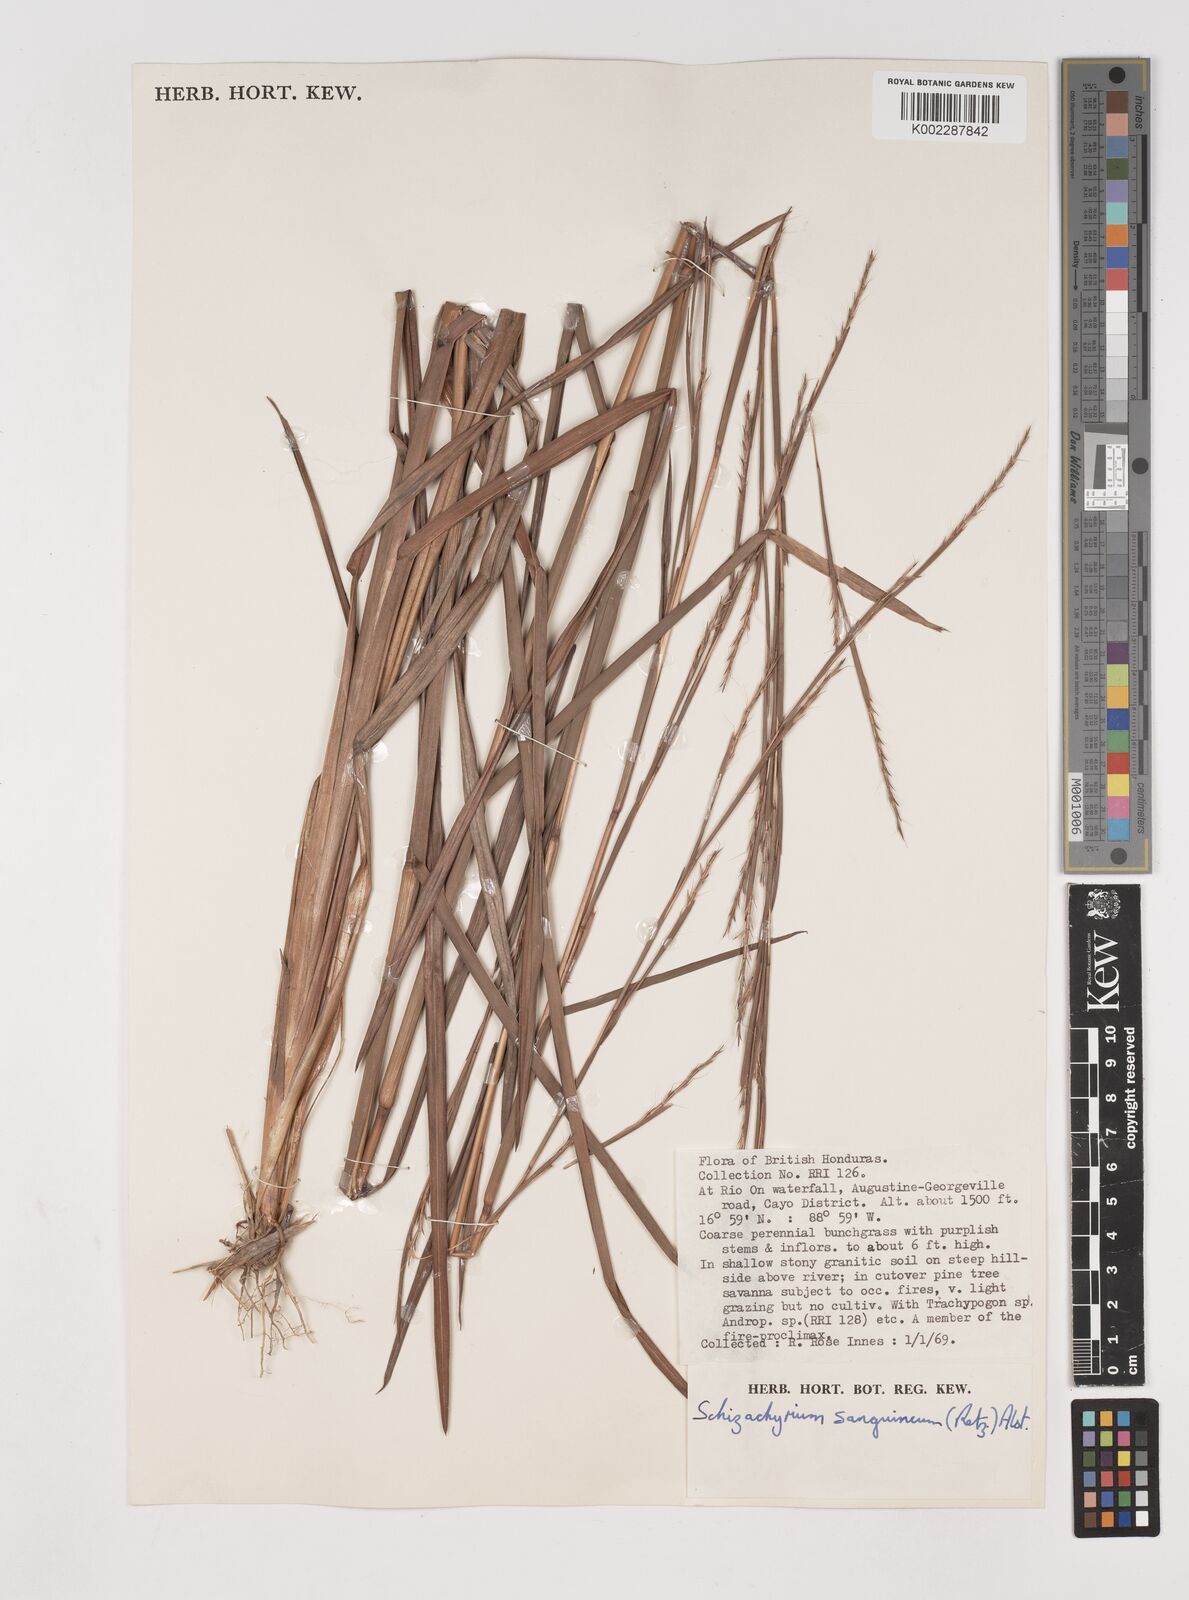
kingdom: Plantae
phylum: Tracheophyta
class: Liliopsida
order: Poales
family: Poaceae
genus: Schizachyrium
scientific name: Schizachyrium sanguineum
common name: Crimson bluestem
